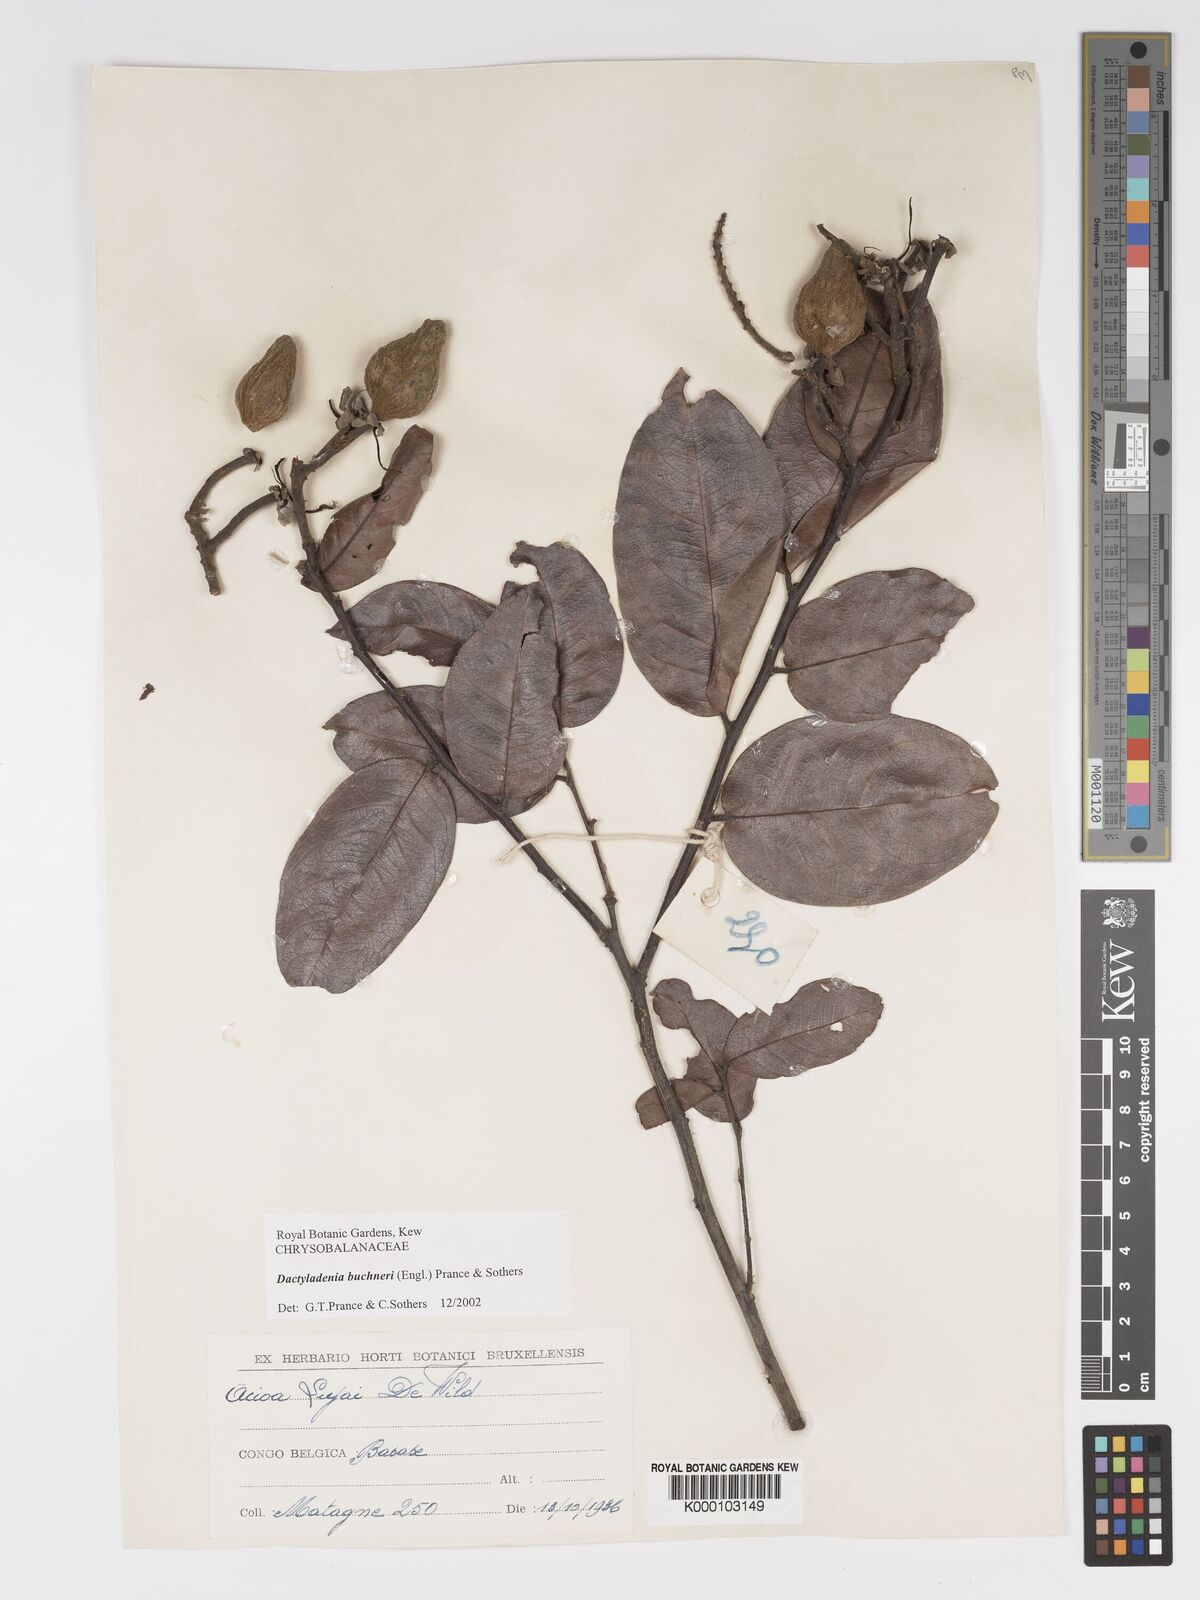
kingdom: Plantae
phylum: Tracheophyta
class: Magnoliopsida
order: Malpighiales
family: Chrysobalanaceae
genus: Dactyladenia
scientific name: Dactyladenia buchneri
